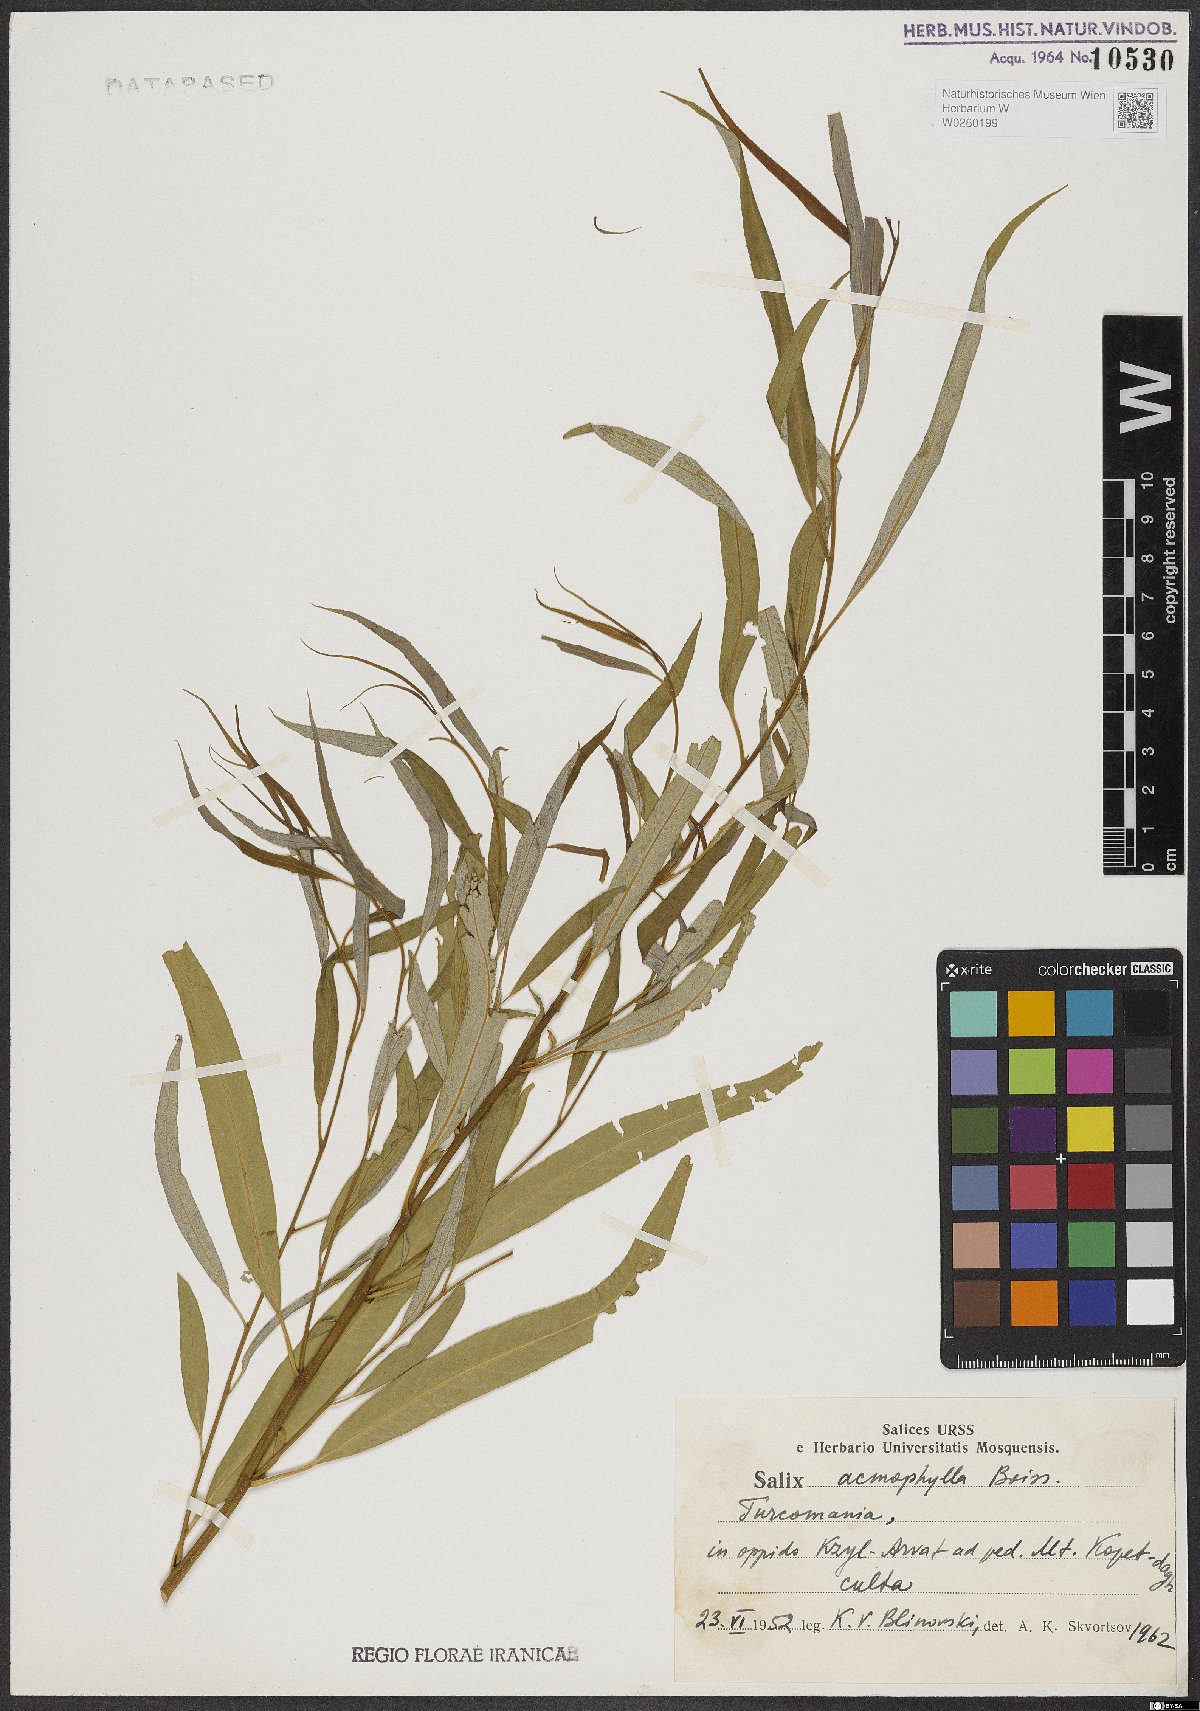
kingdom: Plantae
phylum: Tracheophyta
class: Magnoliopsida
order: Malpighiales
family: Salicaceae
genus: Salix
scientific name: Salix acmophylla
